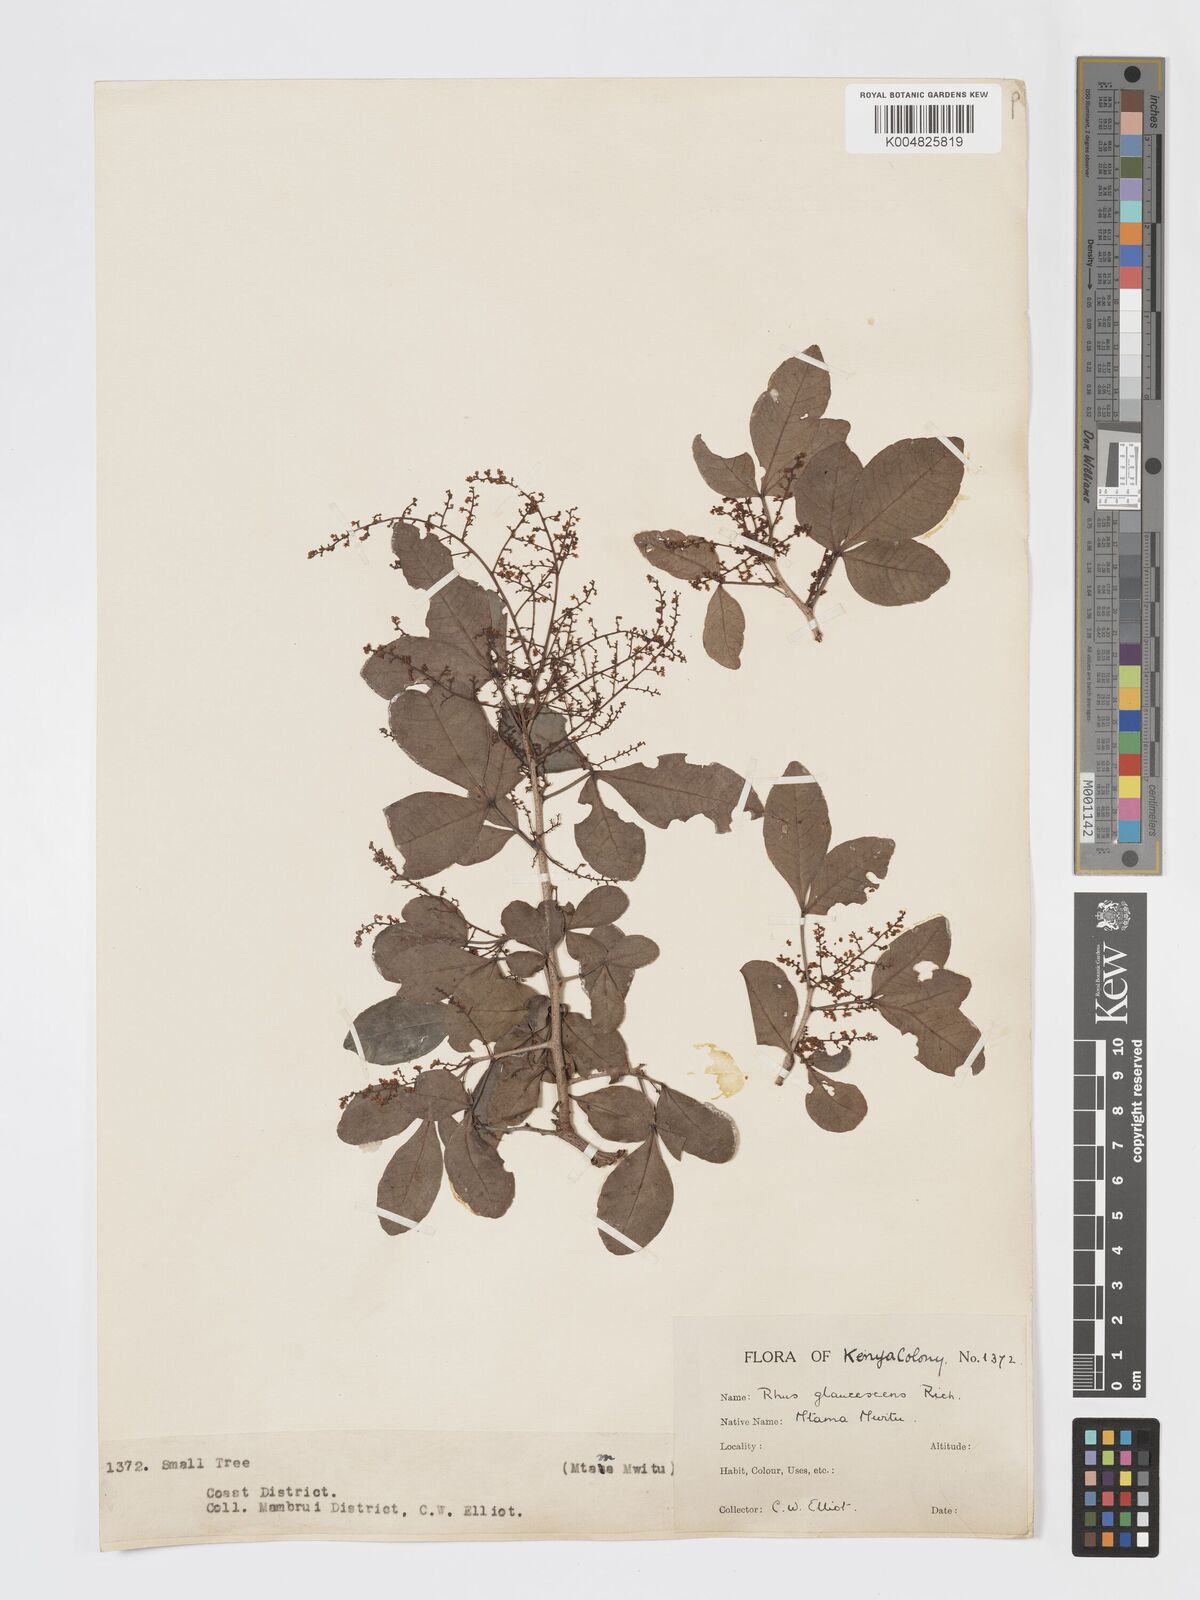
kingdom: Plantae
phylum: Tracheophyta
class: Magnoliopsida
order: Sapindales
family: Anacardiaceae
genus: Searsia
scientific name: Searsia natalensis
